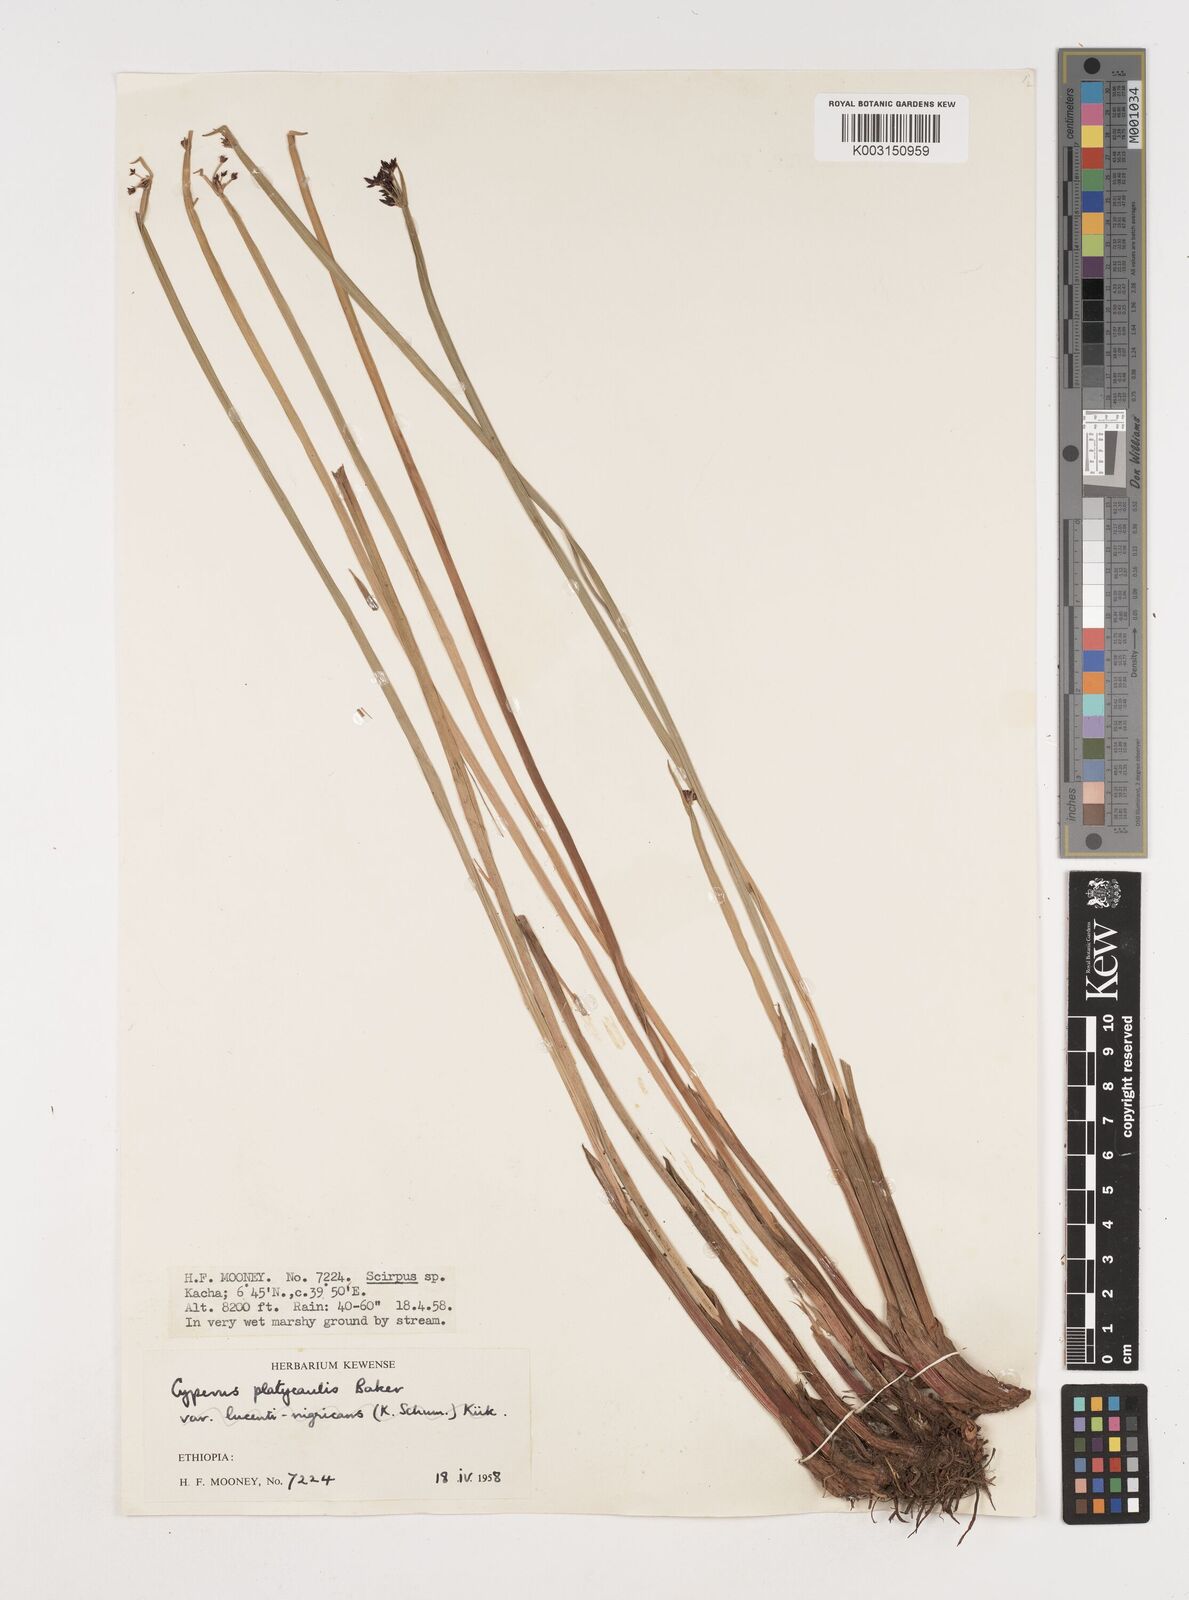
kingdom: Plantae
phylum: Tracheophyta
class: Liliopsida
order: Poales
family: Cyperaceae
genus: Cyperus
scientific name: Cyperus platycaulis
